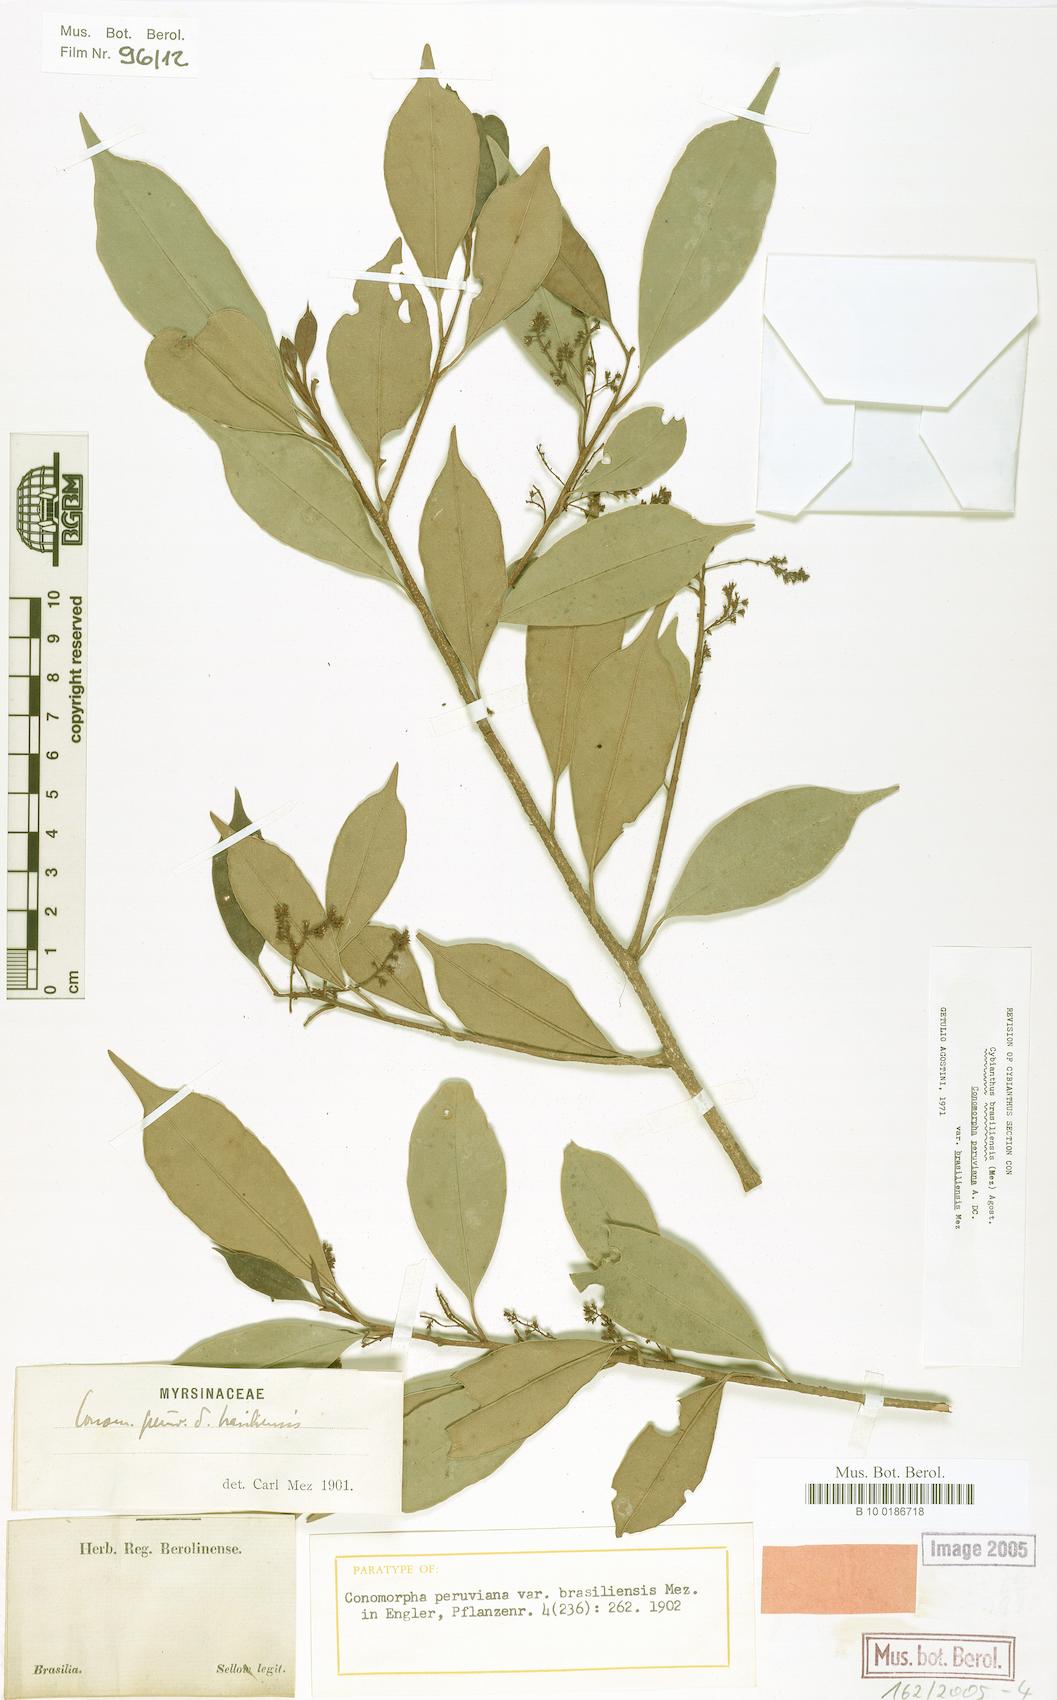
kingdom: Plantae
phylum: Tracheophyta
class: Magnoliopsida
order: Ericales
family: Primulaceae
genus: Cybianthus
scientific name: Cybianthus peruvianus
